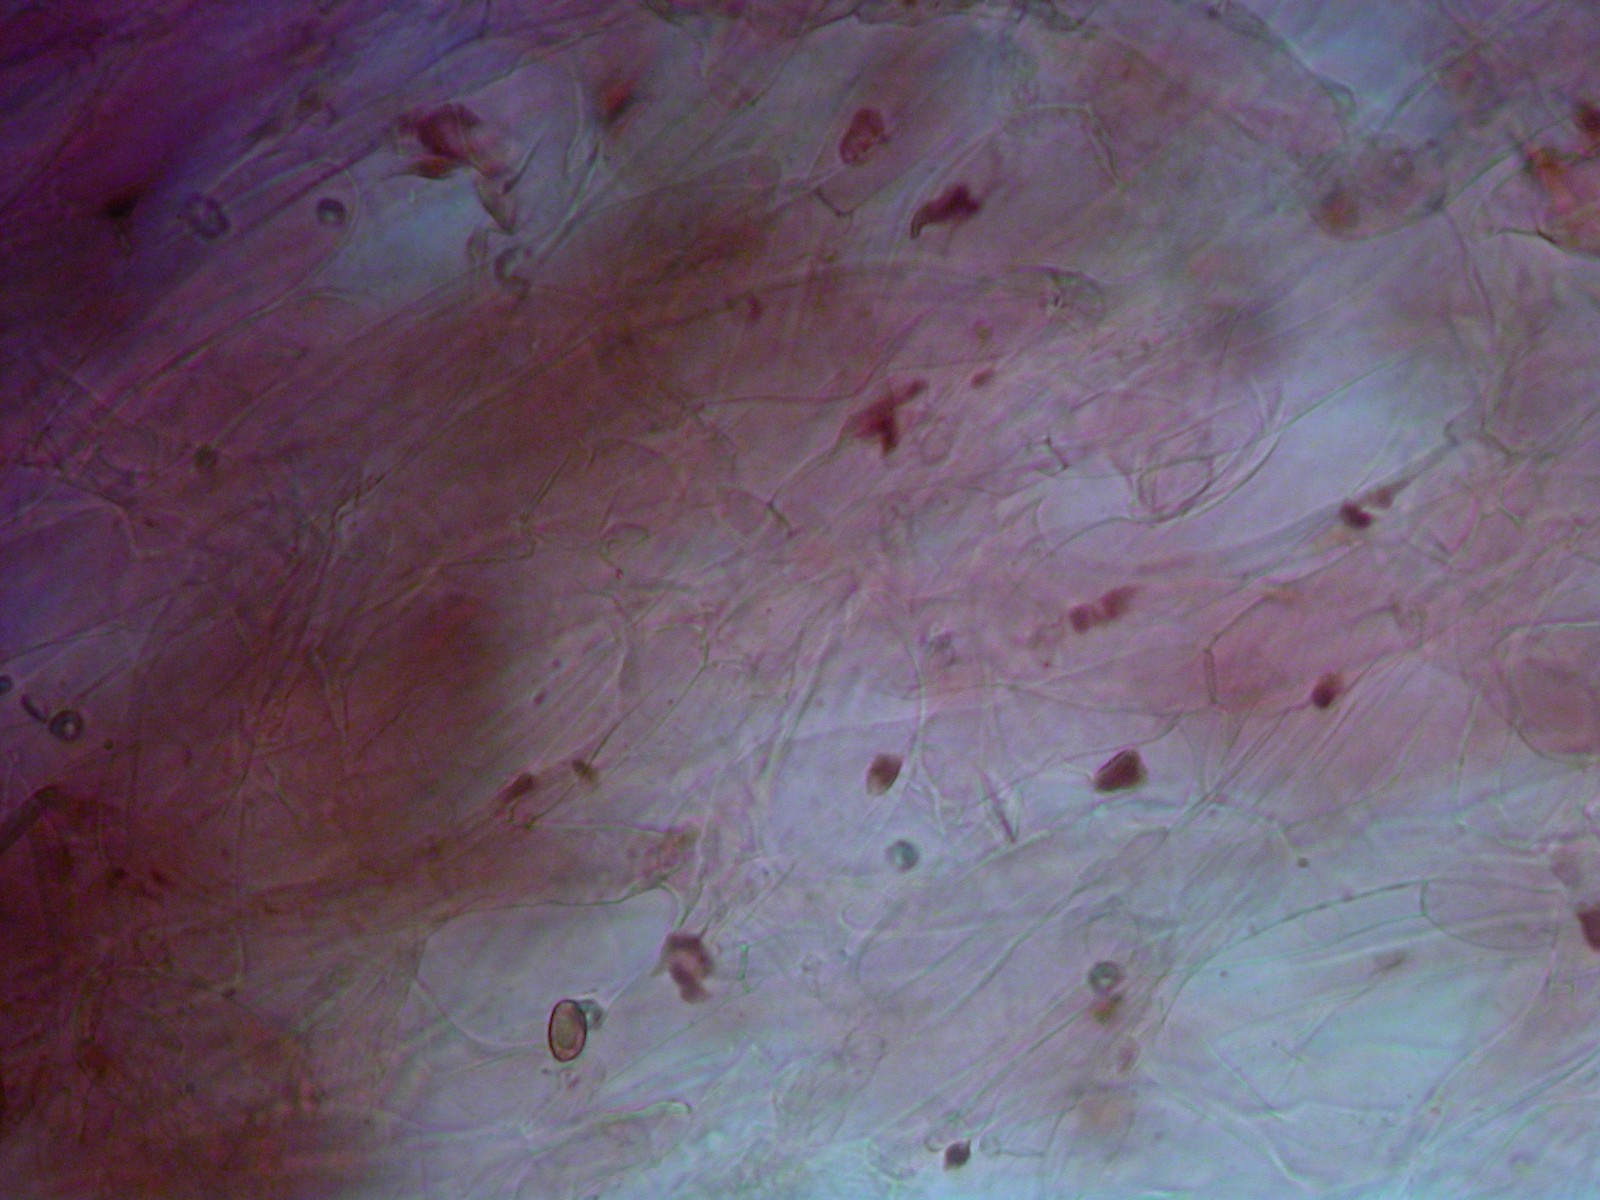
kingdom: Fungi
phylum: Basidiomycota
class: Agaricomycetes
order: Agaricales
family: Cortinariaceae
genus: Cortinarius
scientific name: Cortinarius sanguineus
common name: Bloodred webcap
